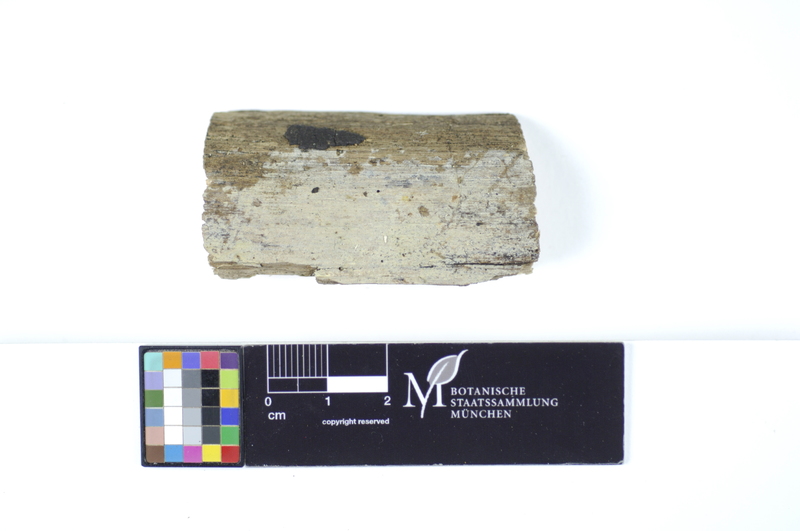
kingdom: Fungi
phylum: Basidiomycota
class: Agaricomycetes
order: Hymenochaetales
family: Rickenellaceae
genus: Peniophorella
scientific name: Peniophorella pubera
